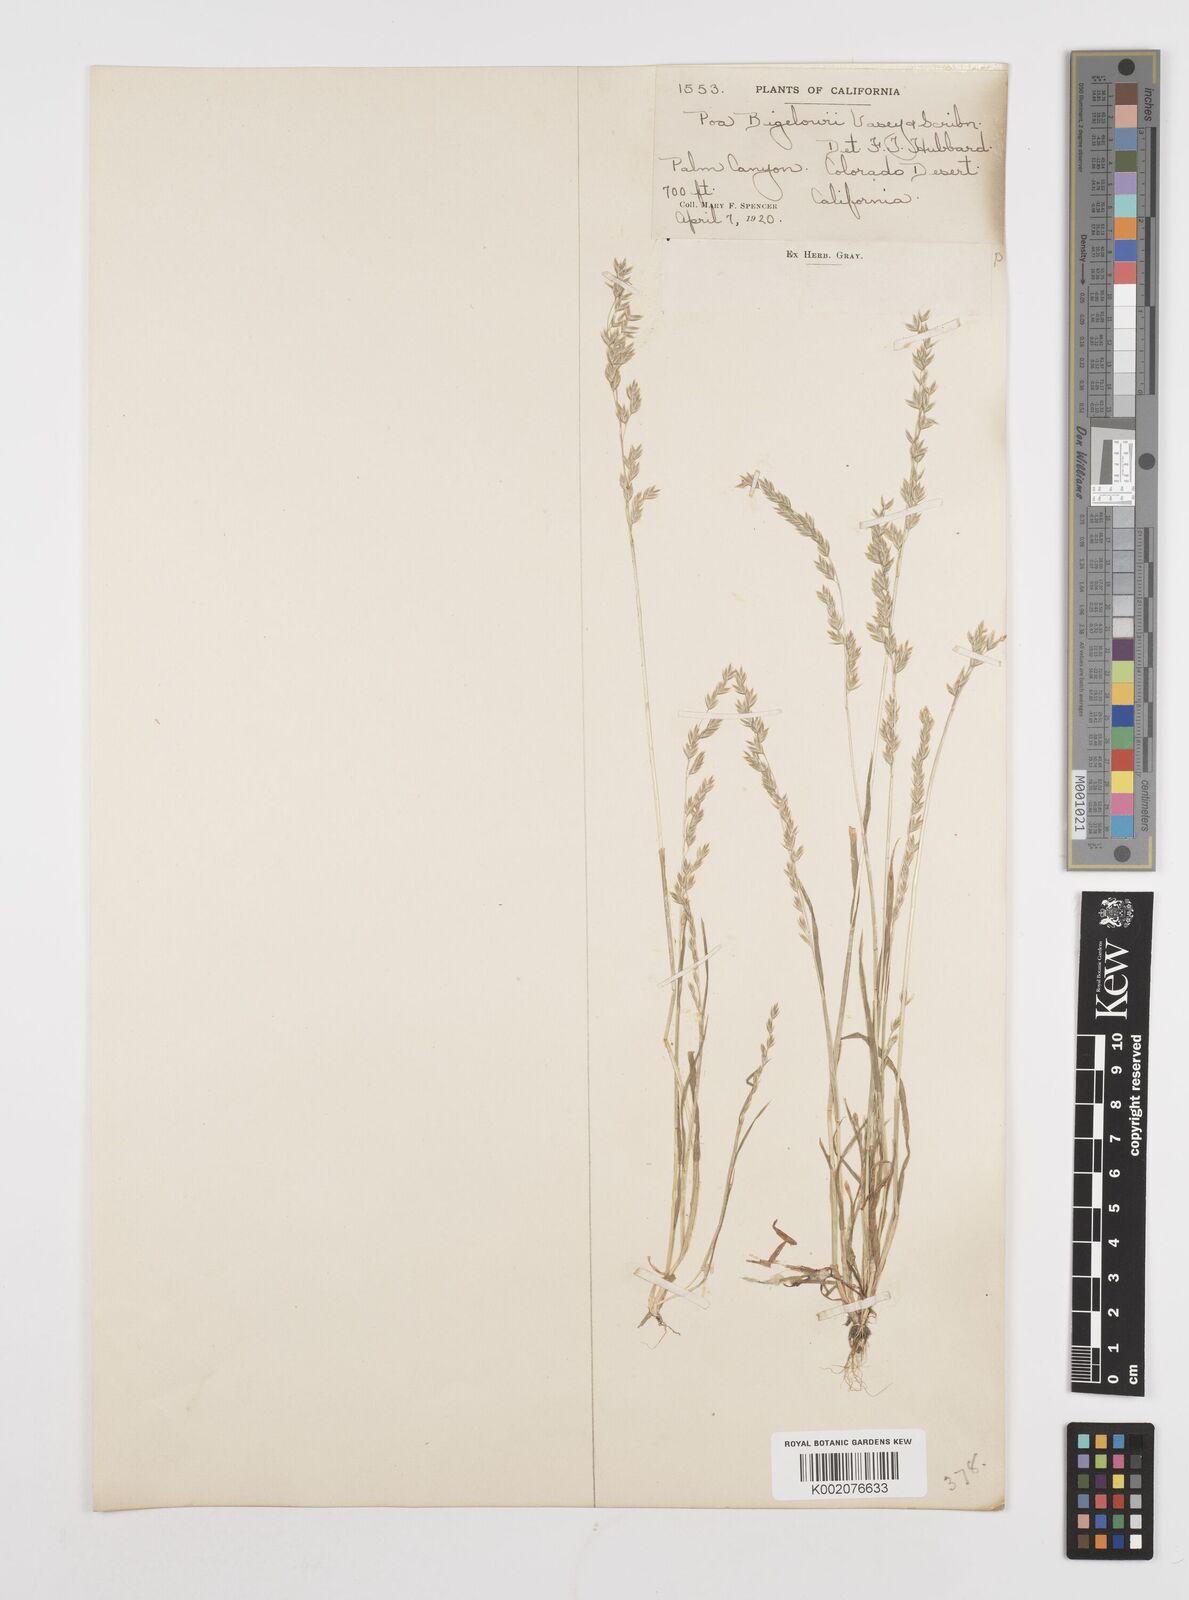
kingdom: Plantae
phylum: Tracheophyta
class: Liliopsida
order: Poales
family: Poaceae
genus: Poa
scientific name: Poa bigelovii
